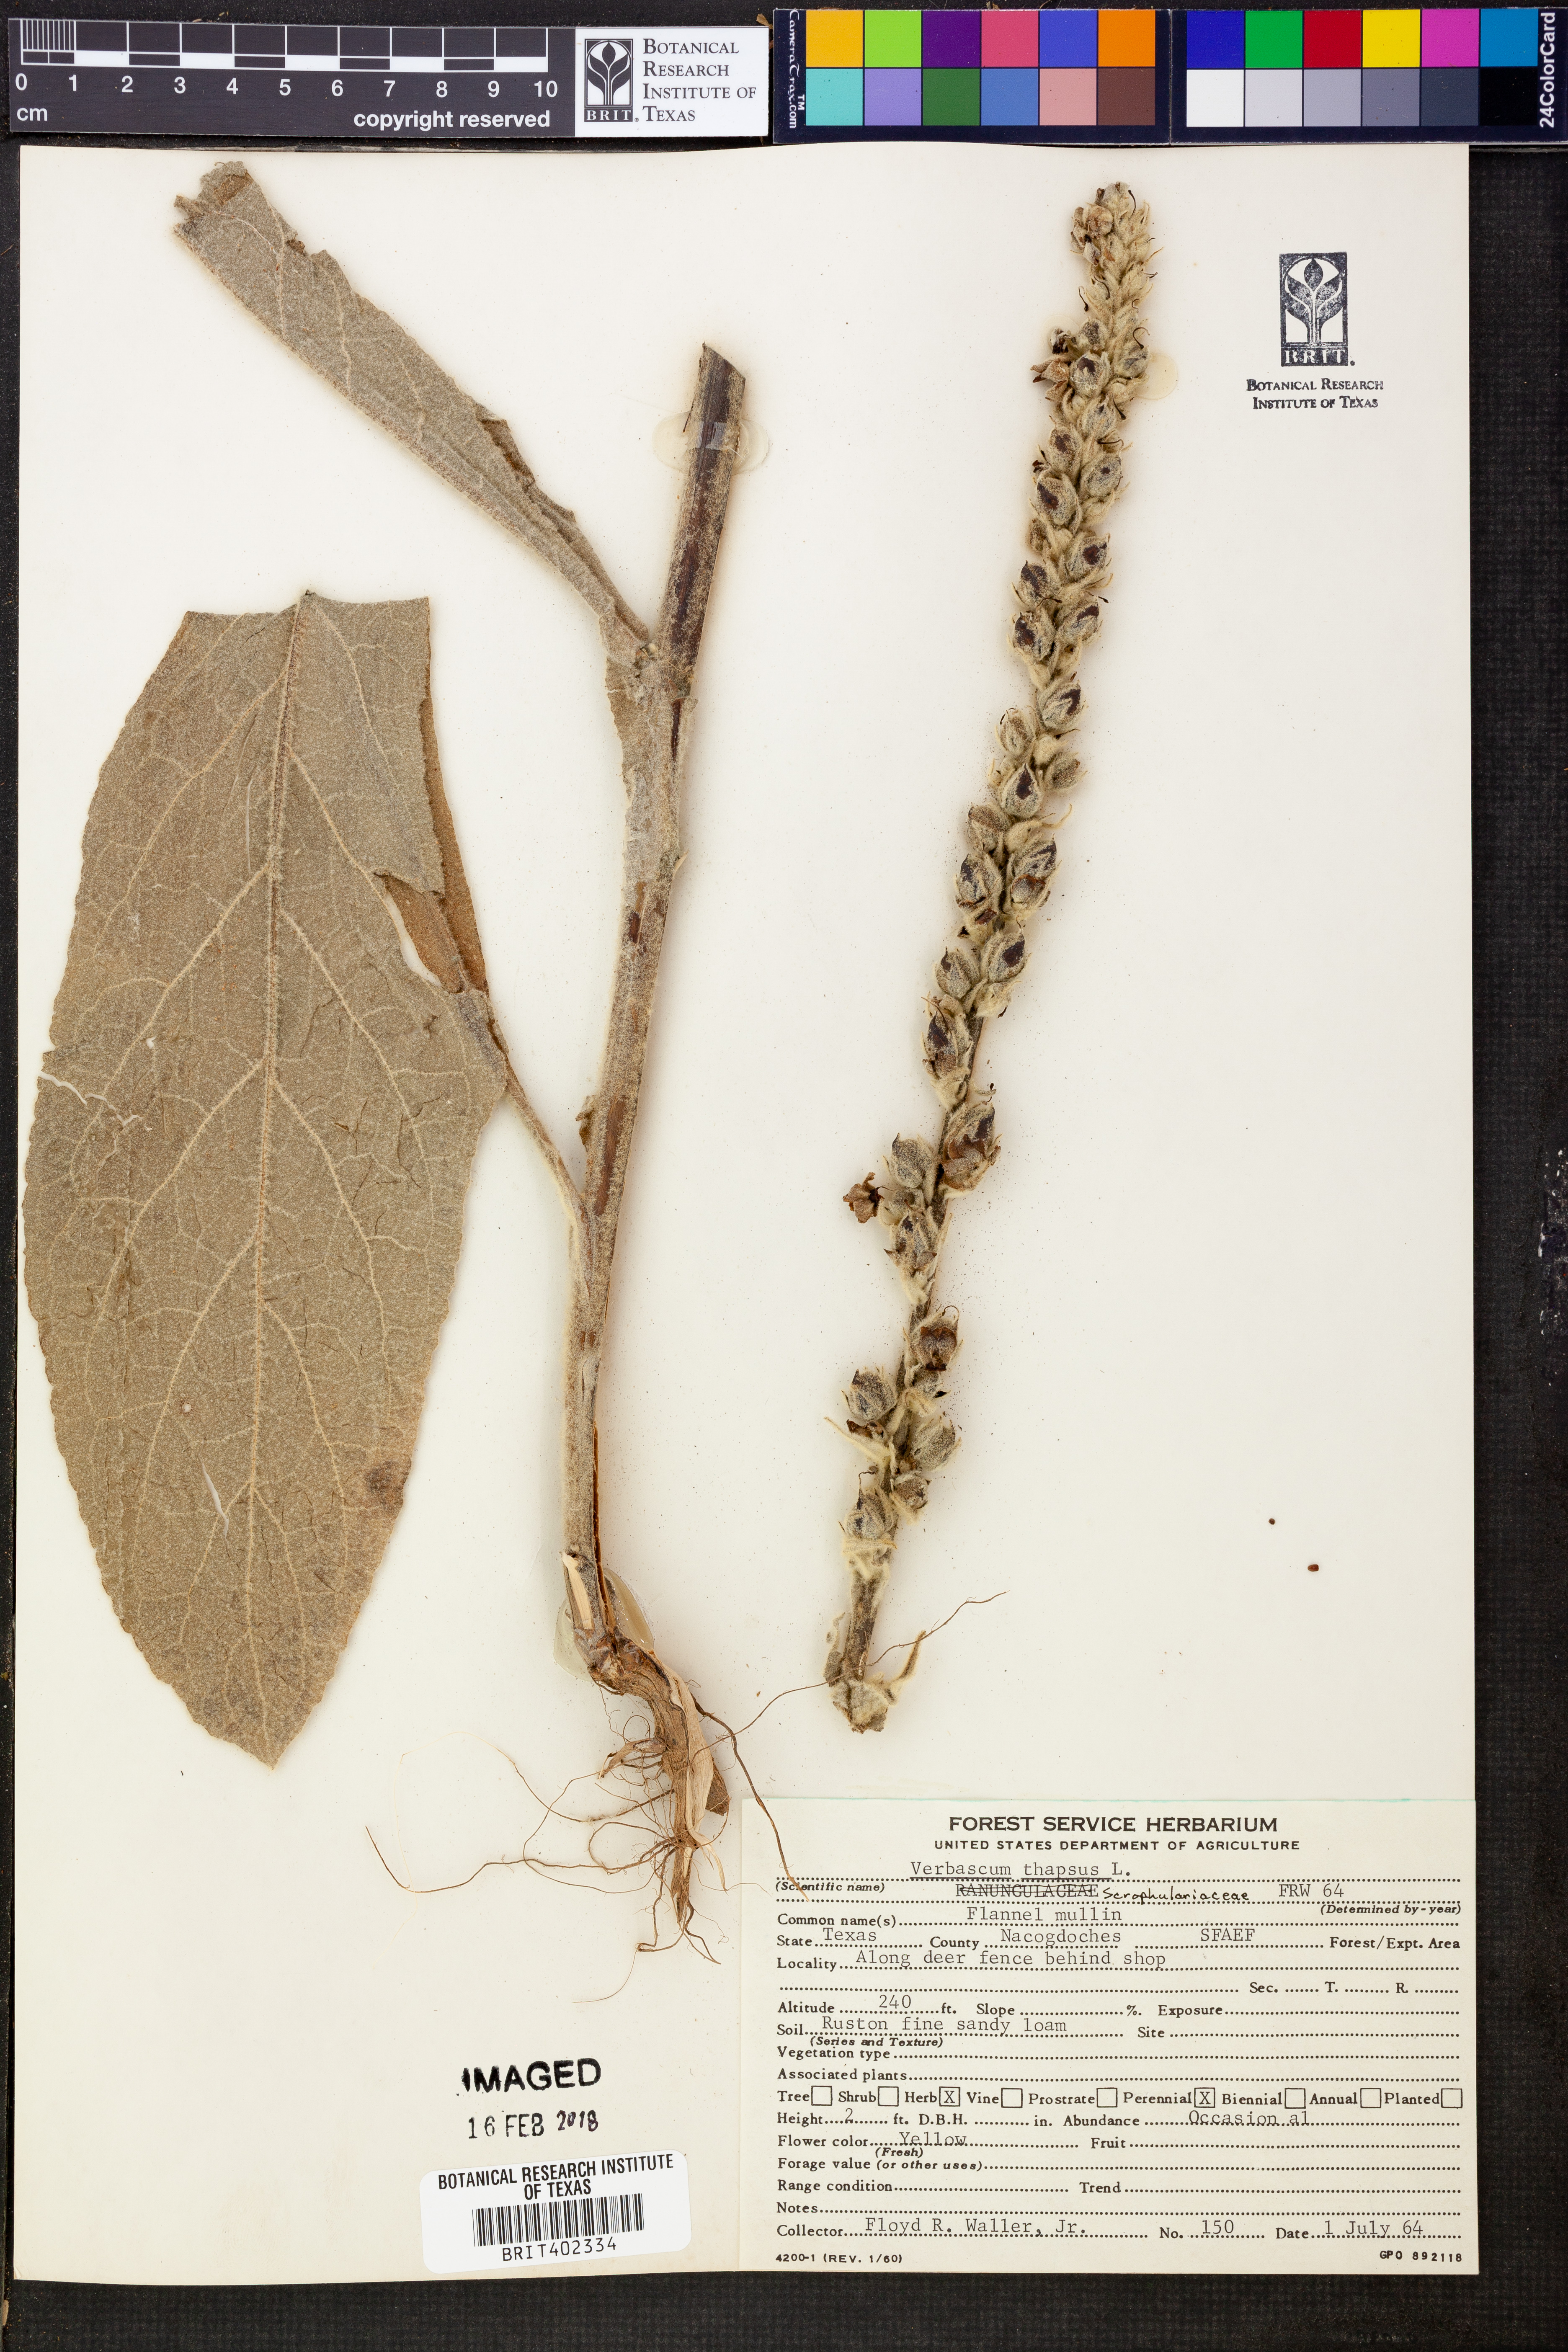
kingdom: Plantae
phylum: Tracheophyta
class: Magnoliopsida
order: Lamiales
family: Scrophulariaceae
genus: Verbascum
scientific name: Verbascum thapsus
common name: Common mullein
